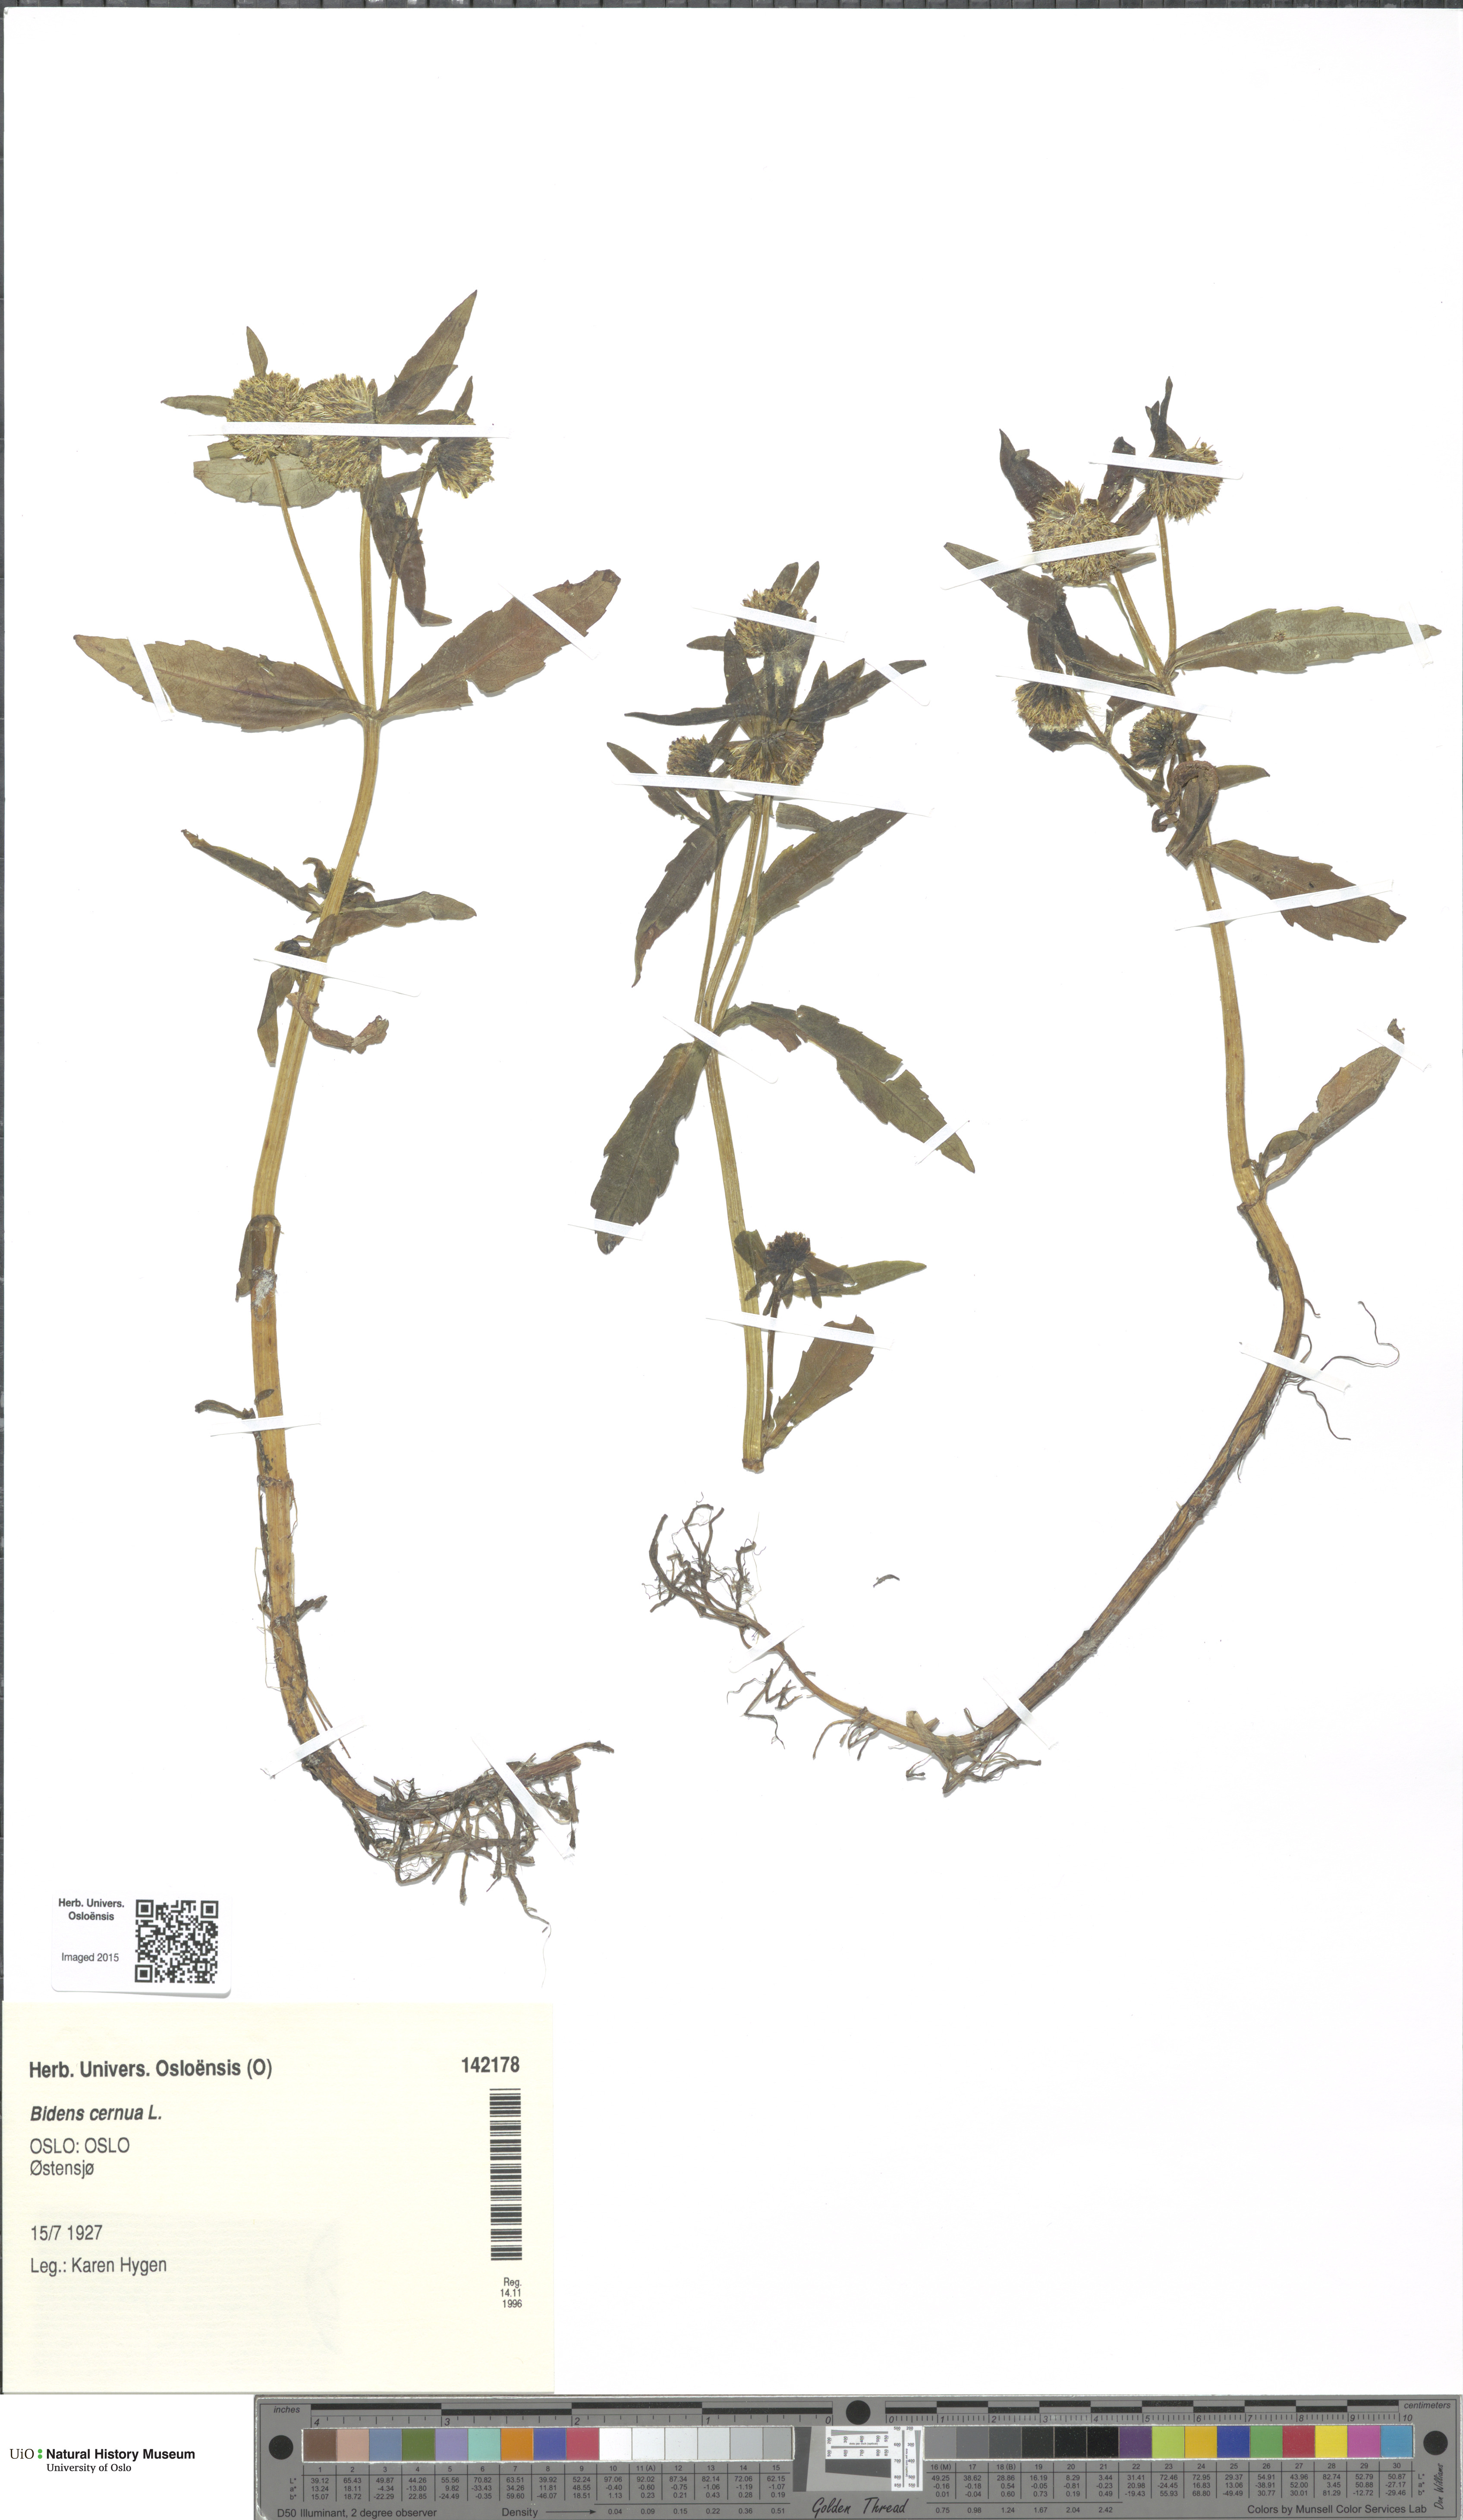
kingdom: Plantae
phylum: Tracheophyta
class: Magnoliopsida
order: Asterales
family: Asteraceae
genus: Bidens
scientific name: Bidens cernua
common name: Nodding bur-marigold
